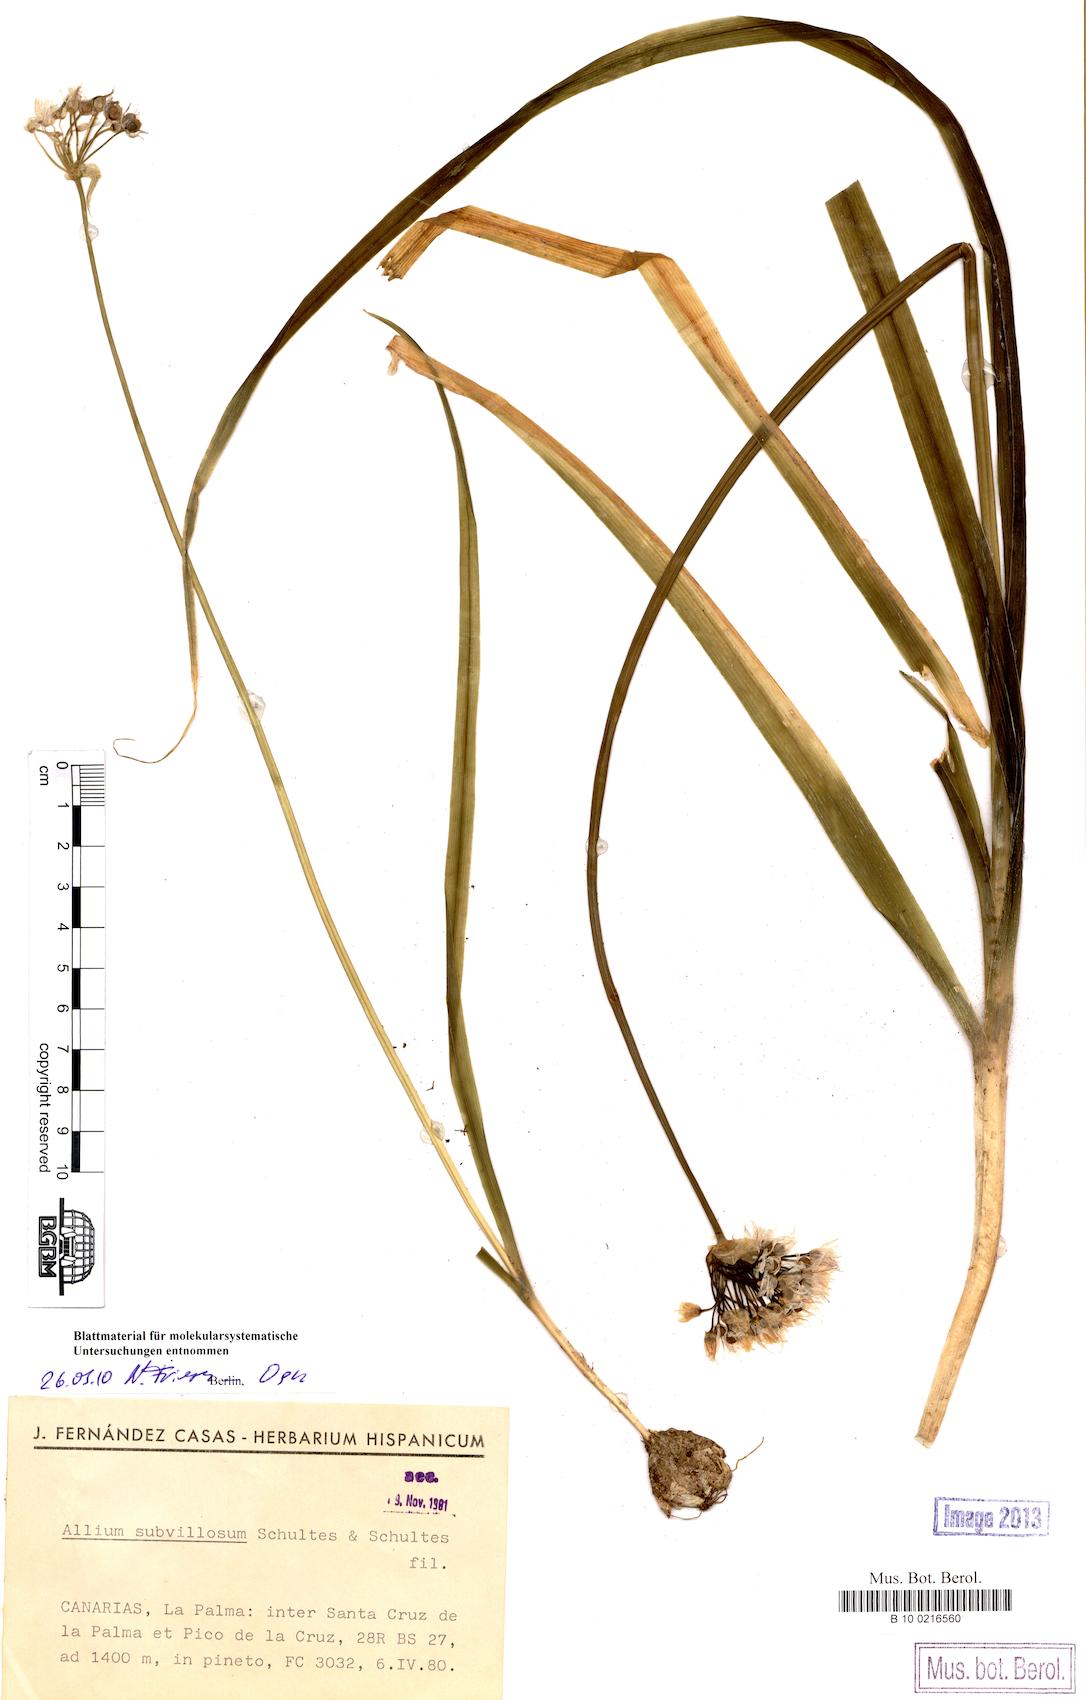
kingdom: Plantae
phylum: Tracheophyta
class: Liliopsida
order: Asparagales
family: Amaryllidaceae
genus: Allium
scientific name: Allium subvillosum
